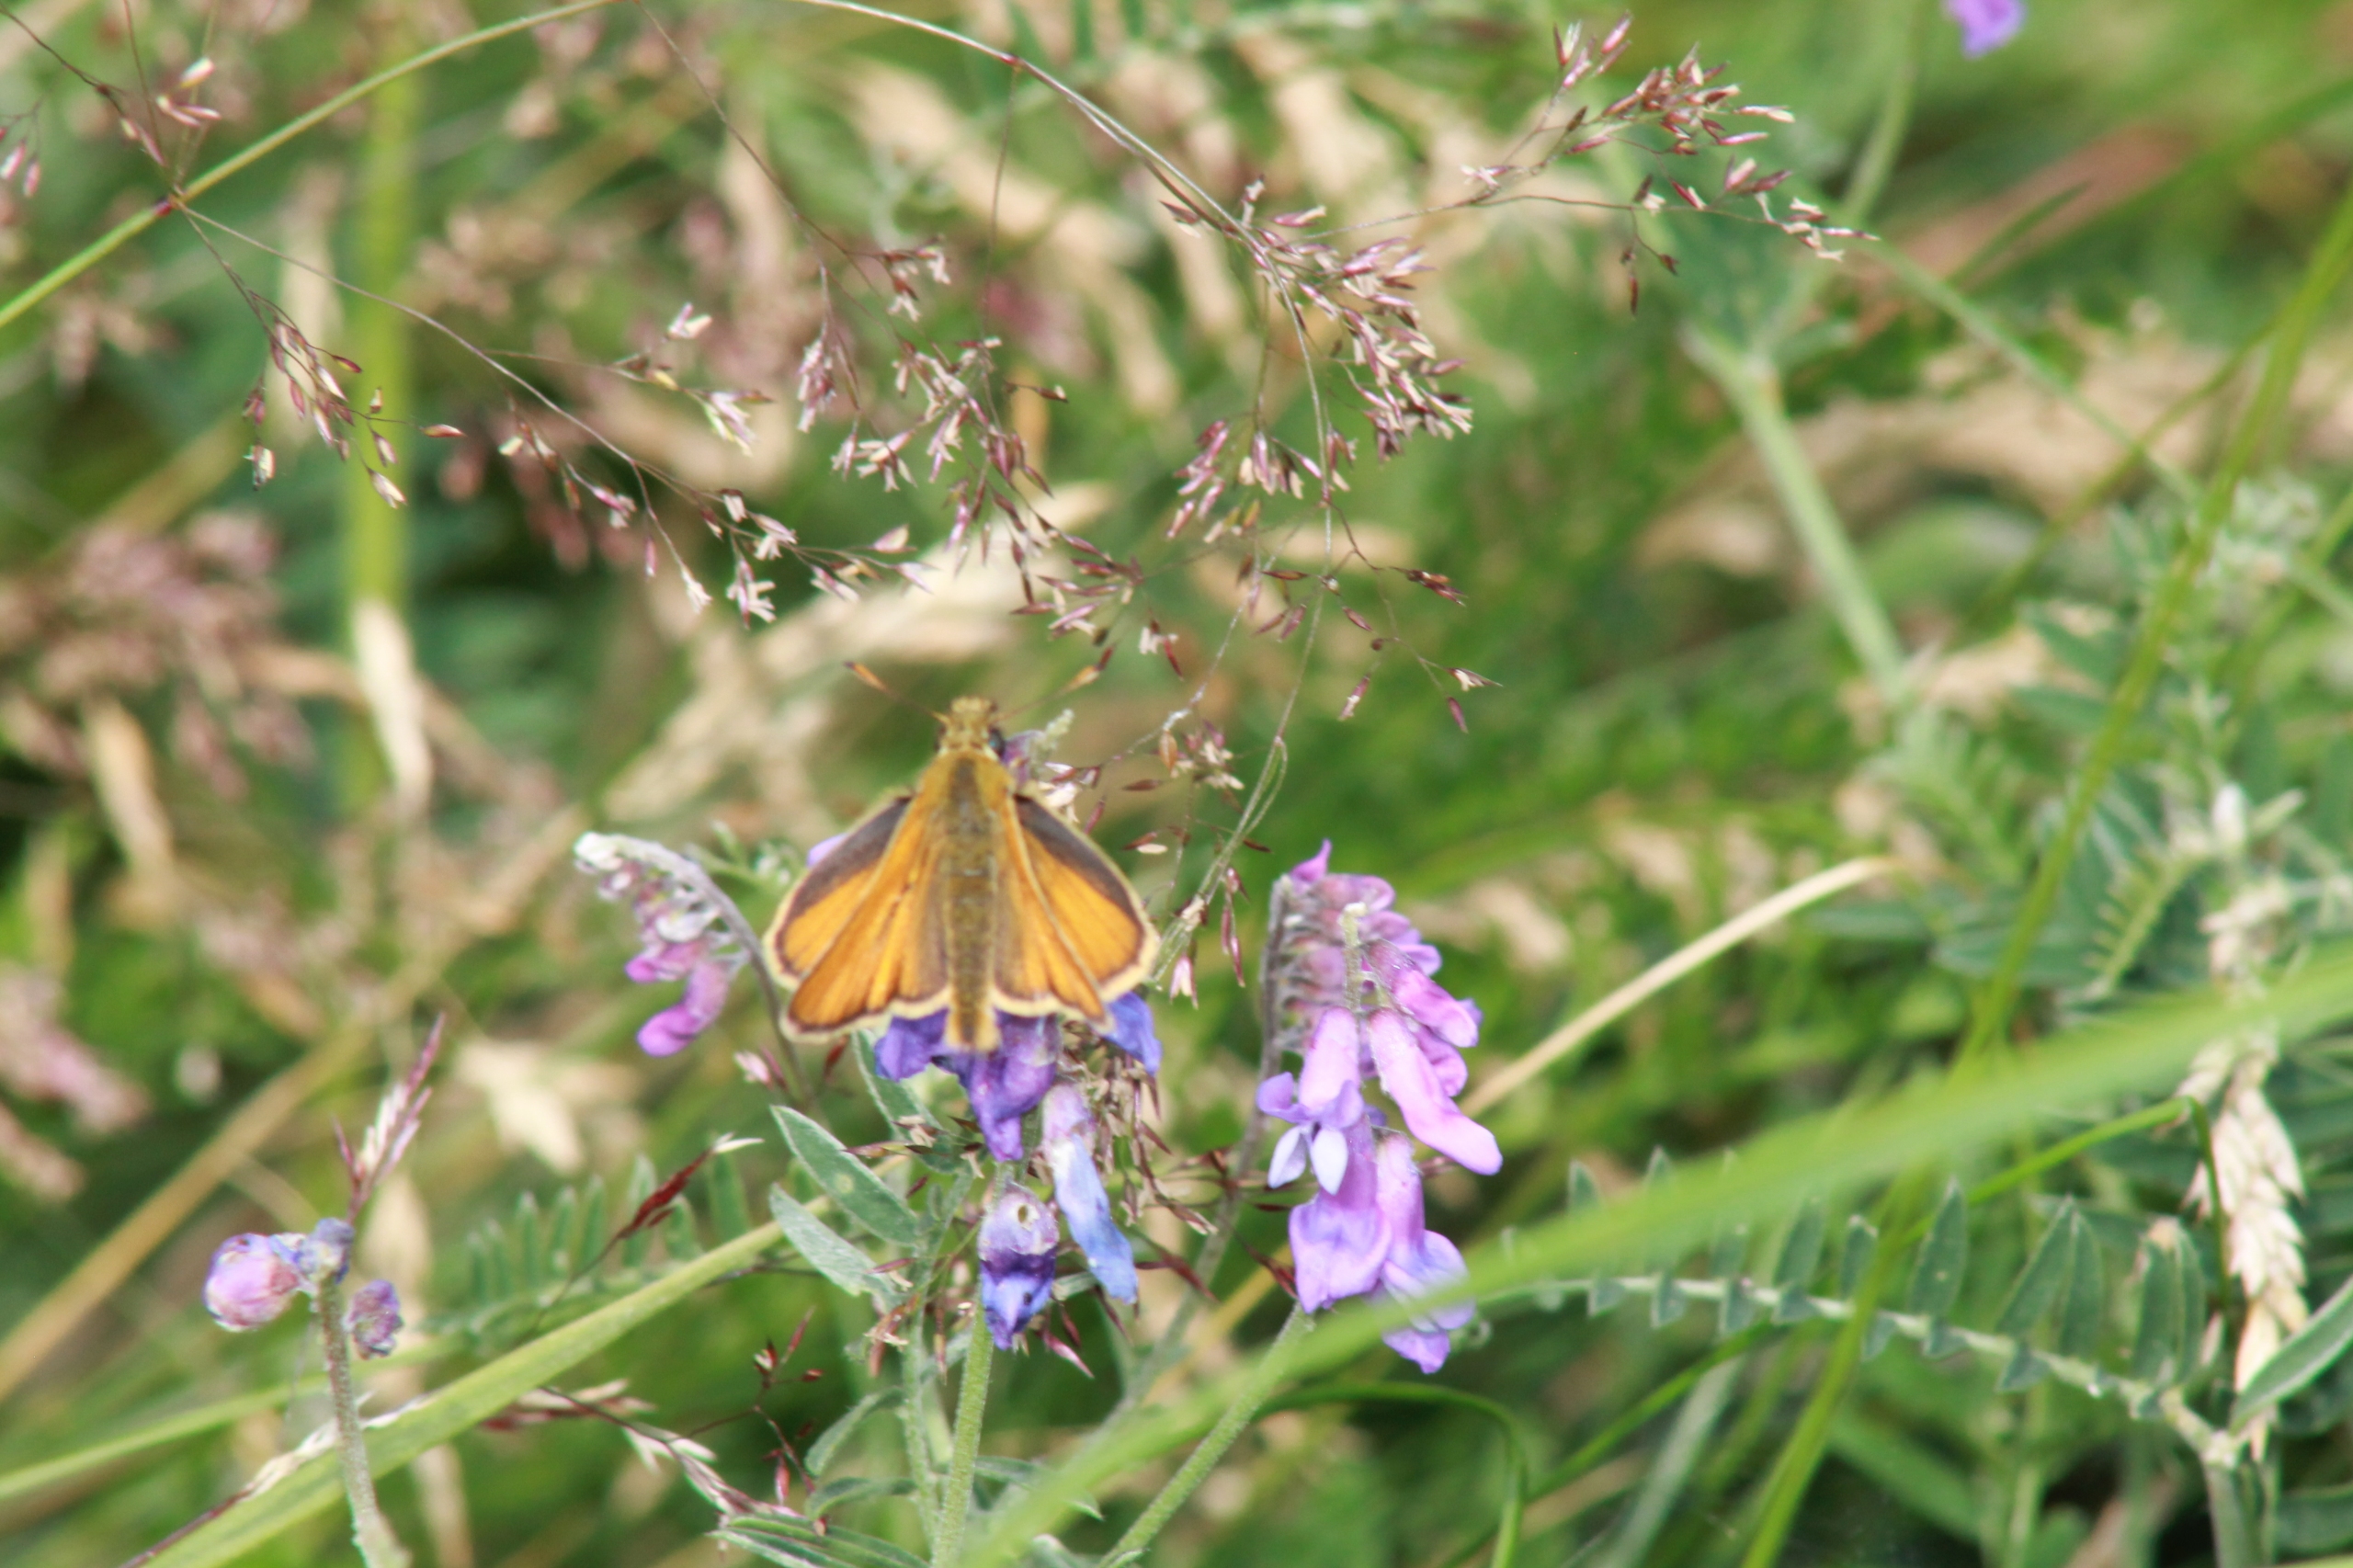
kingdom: Animalia
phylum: Arthropoda
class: Insecta
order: Lepidoptera
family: Hesperiidae
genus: Thymelicus
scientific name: Thymelicus lineola
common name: Stregbredpande
